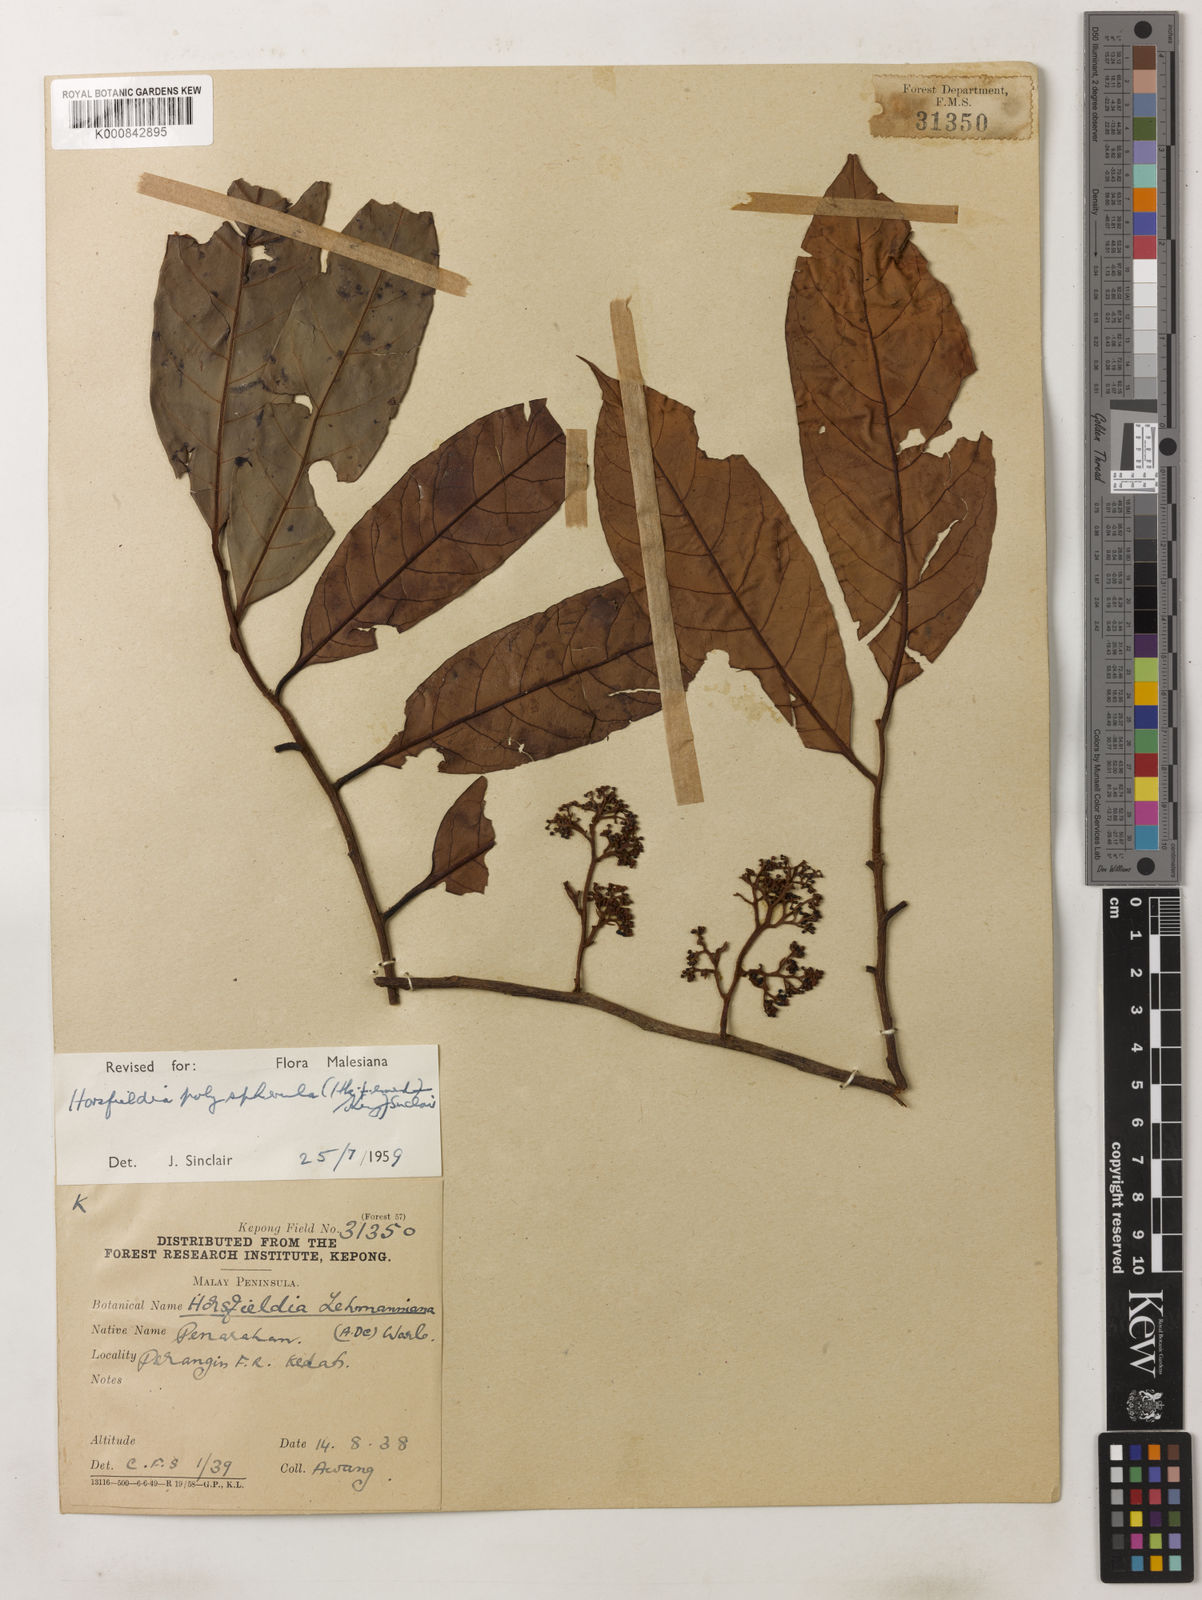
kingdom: Plantae
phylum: Tracheophyta
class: Magnoliopsida
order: Magnoliales
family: Myristicaceae
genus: Horsfieldia
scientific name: Horsfieldia
